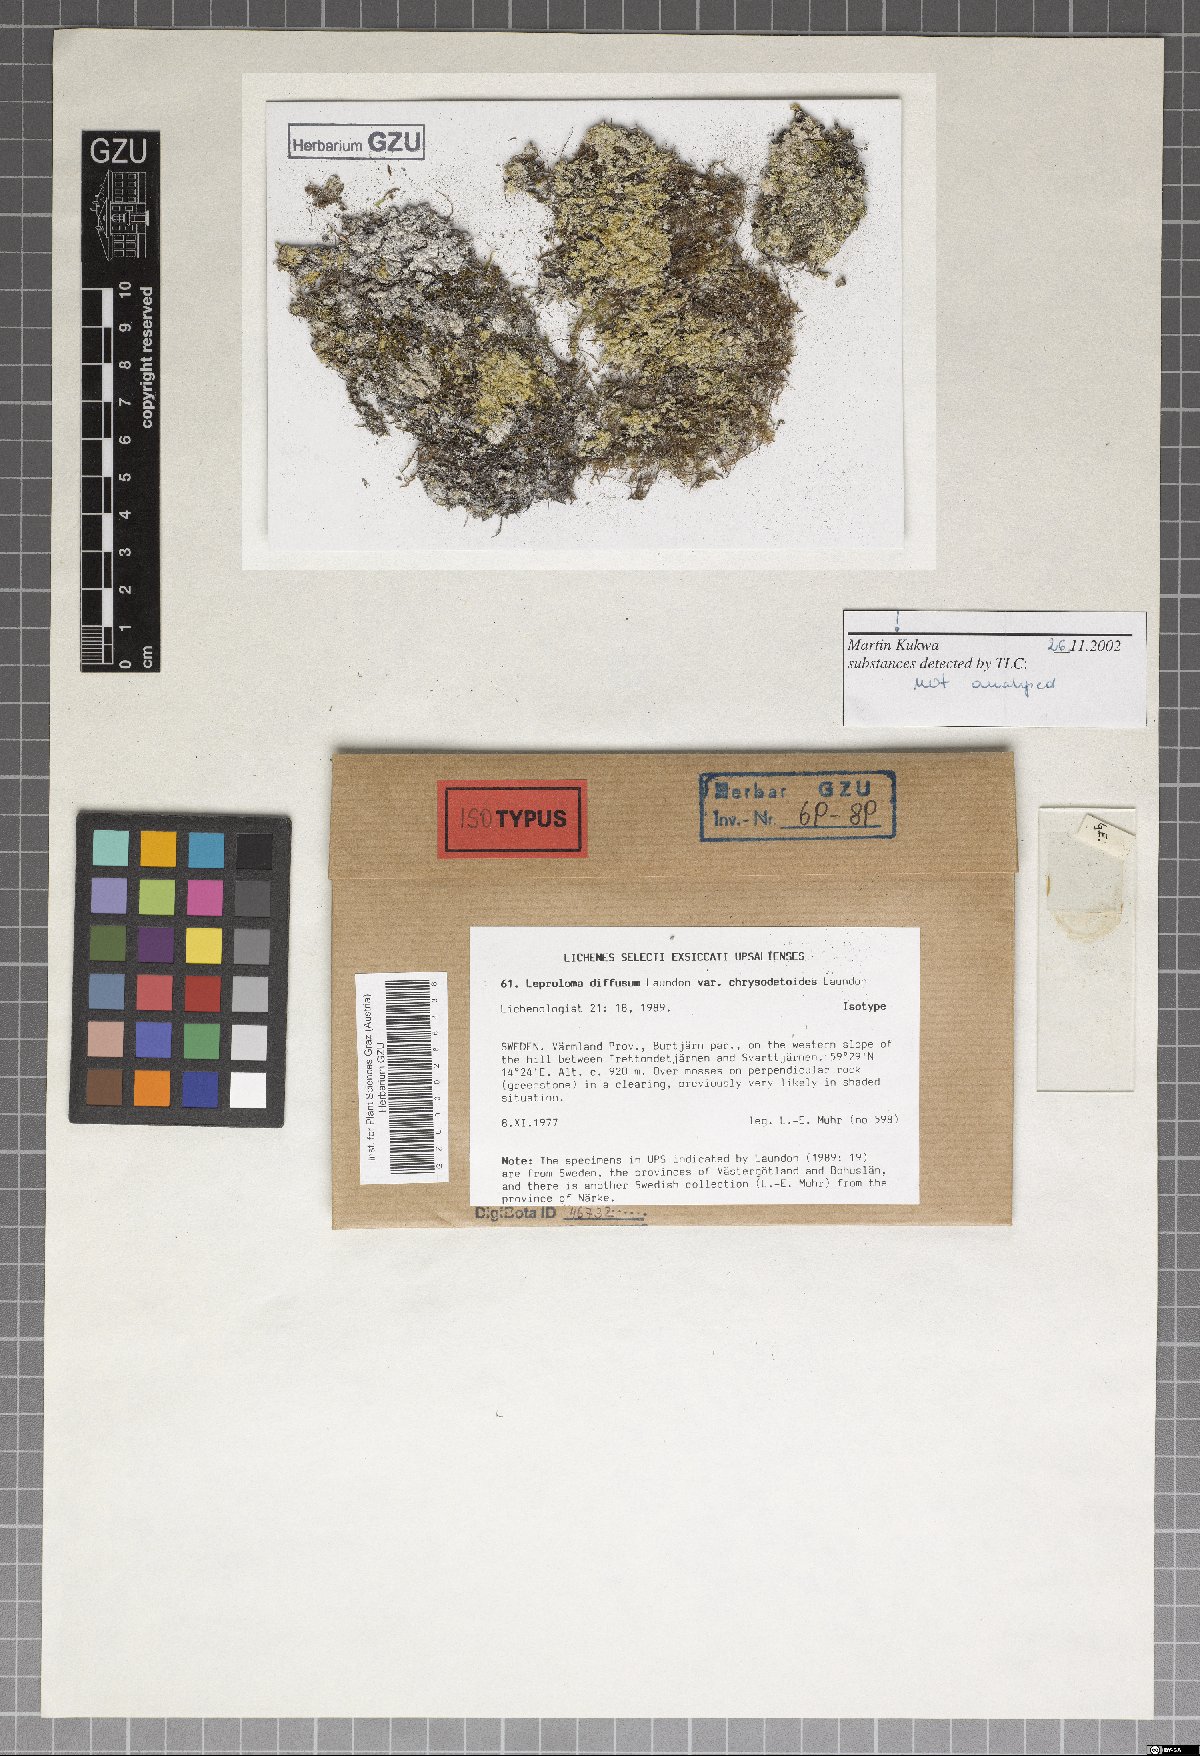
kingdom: Fungi
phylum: Ascomycota
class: Lecanoromycetes
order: Lecanorales
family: Stereocaulaceae
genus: Lepraria
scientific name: Lepraria diffusa
